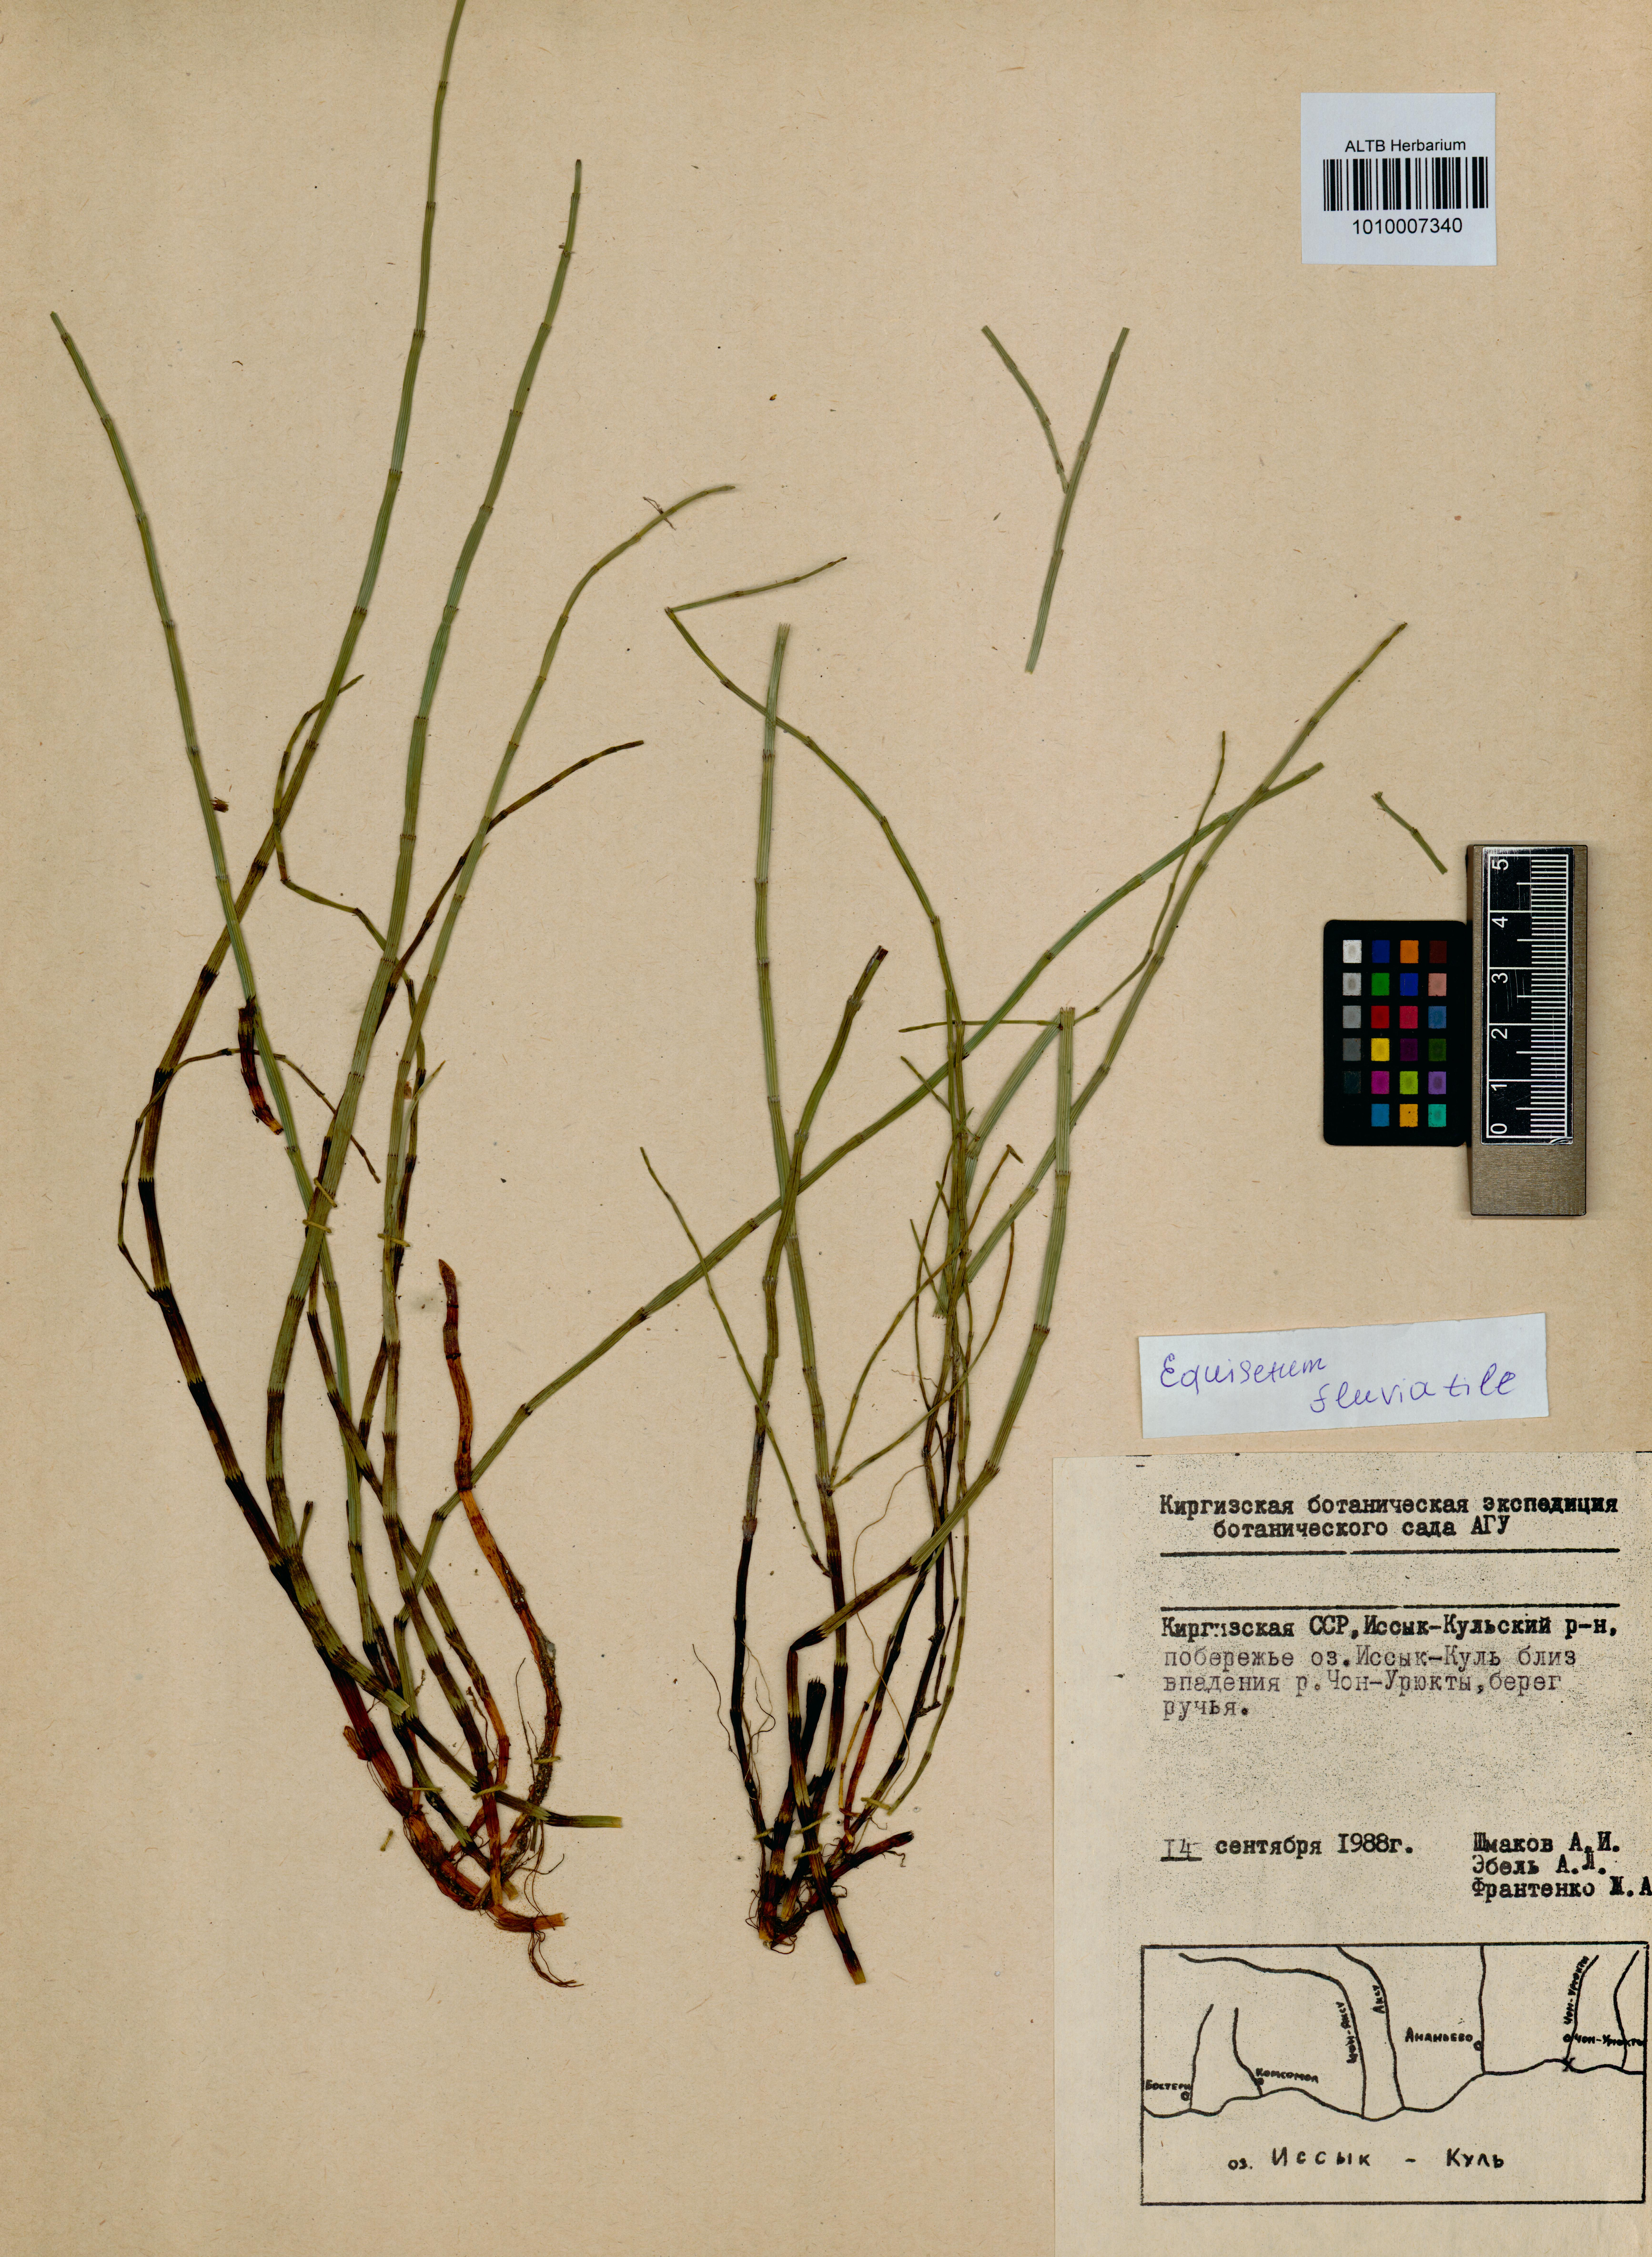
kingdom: Plantae
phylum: Tracheophyta
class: Polypodiopsida
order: Equisetales
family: Equisetaceae
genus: Equisetum
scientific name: Equisetum fluviatile
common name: Water horsetail
